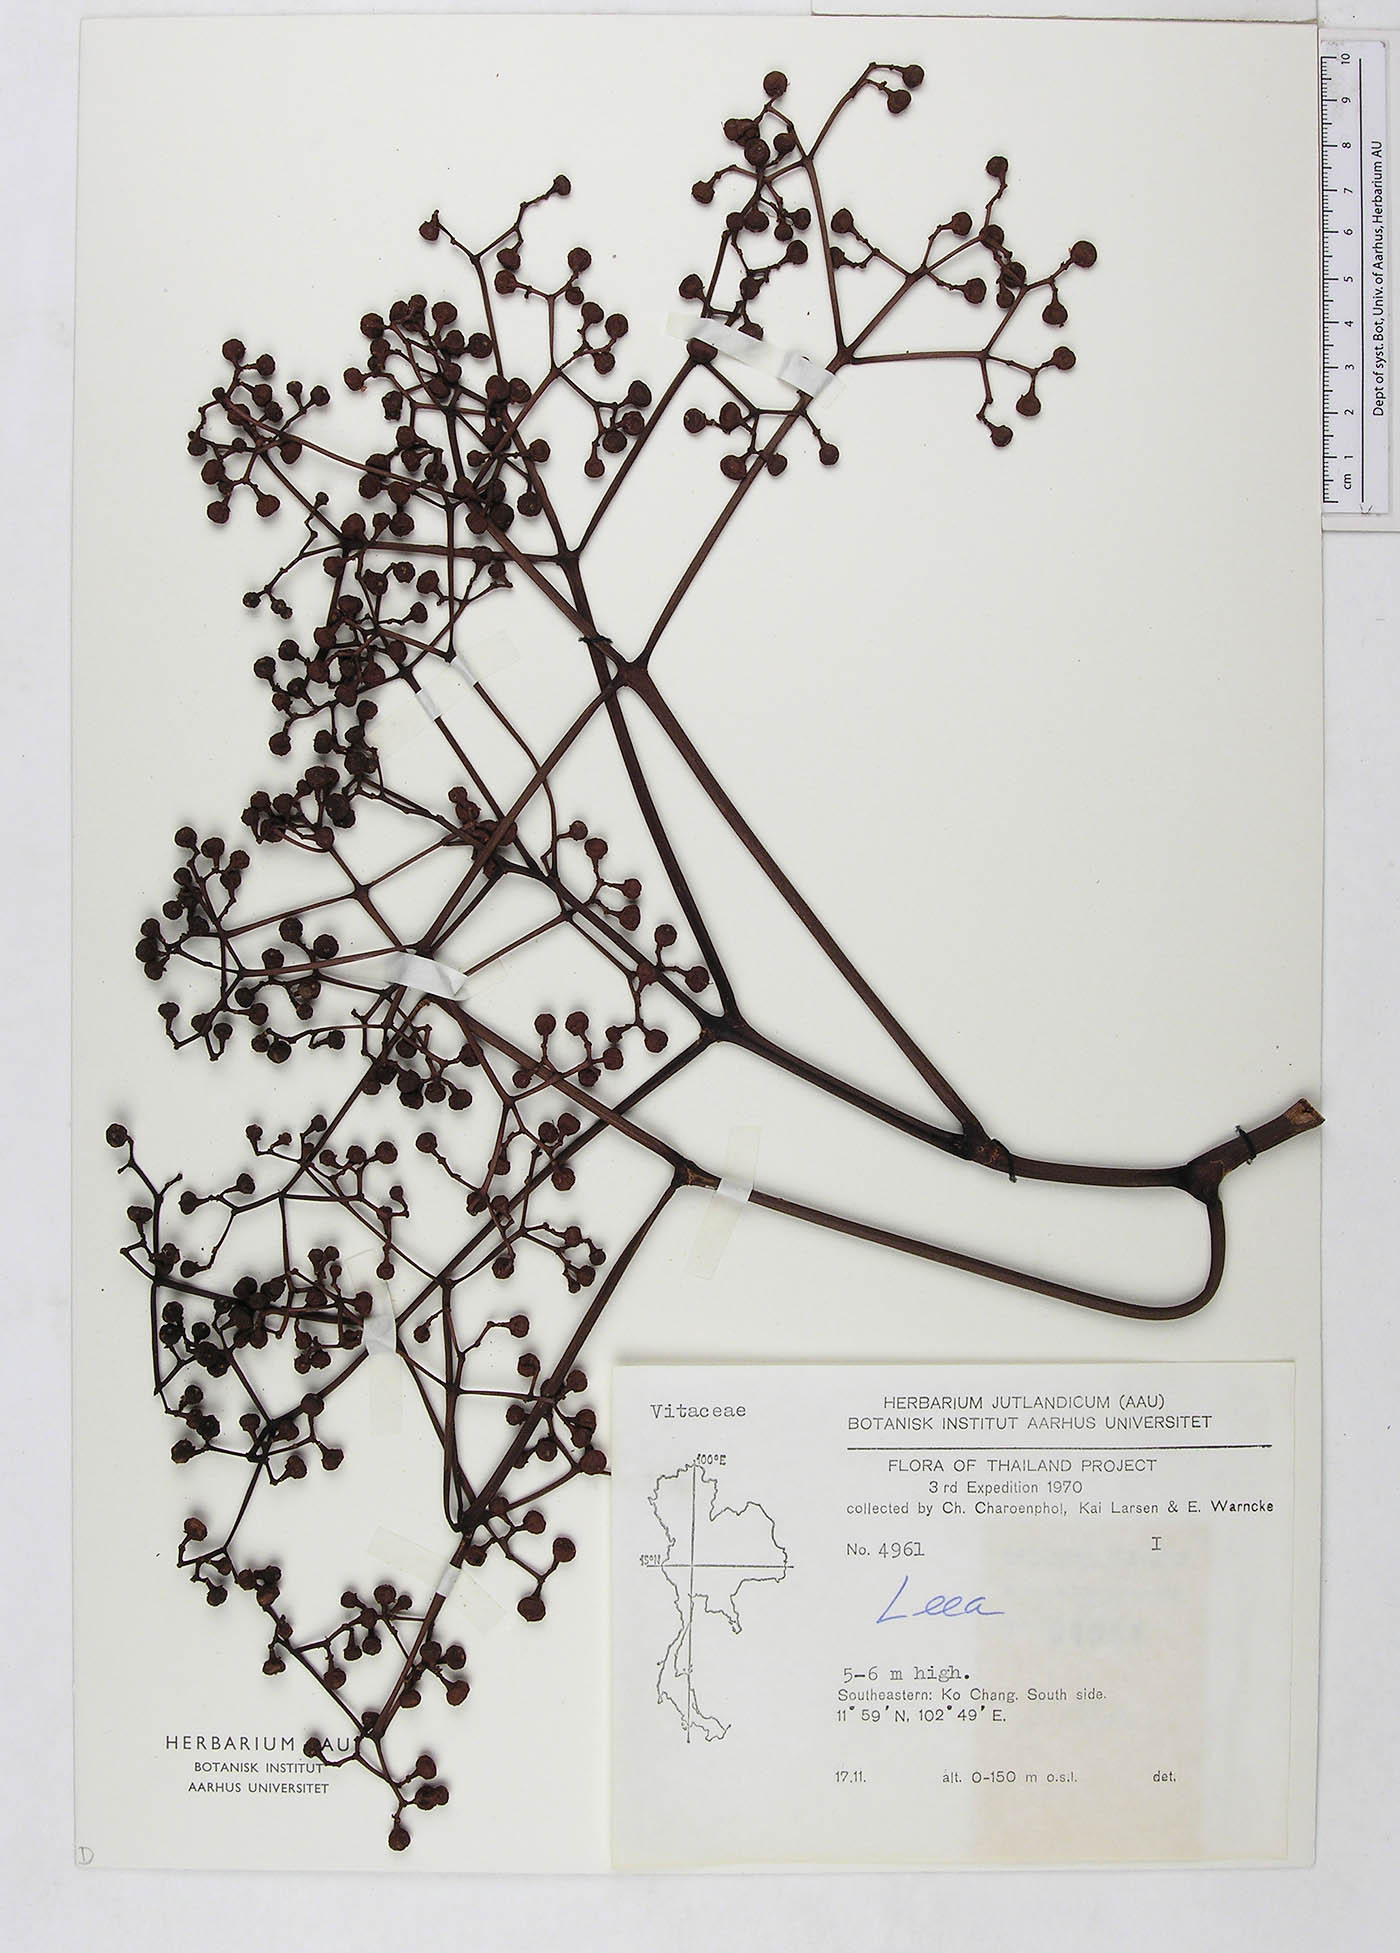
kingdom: Plantae
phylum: Tracheophyta
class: Magnoliopsida
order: Vitales
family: Vitaceae
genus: Leea
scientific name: Leea indica
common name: Bandicoot-berry
